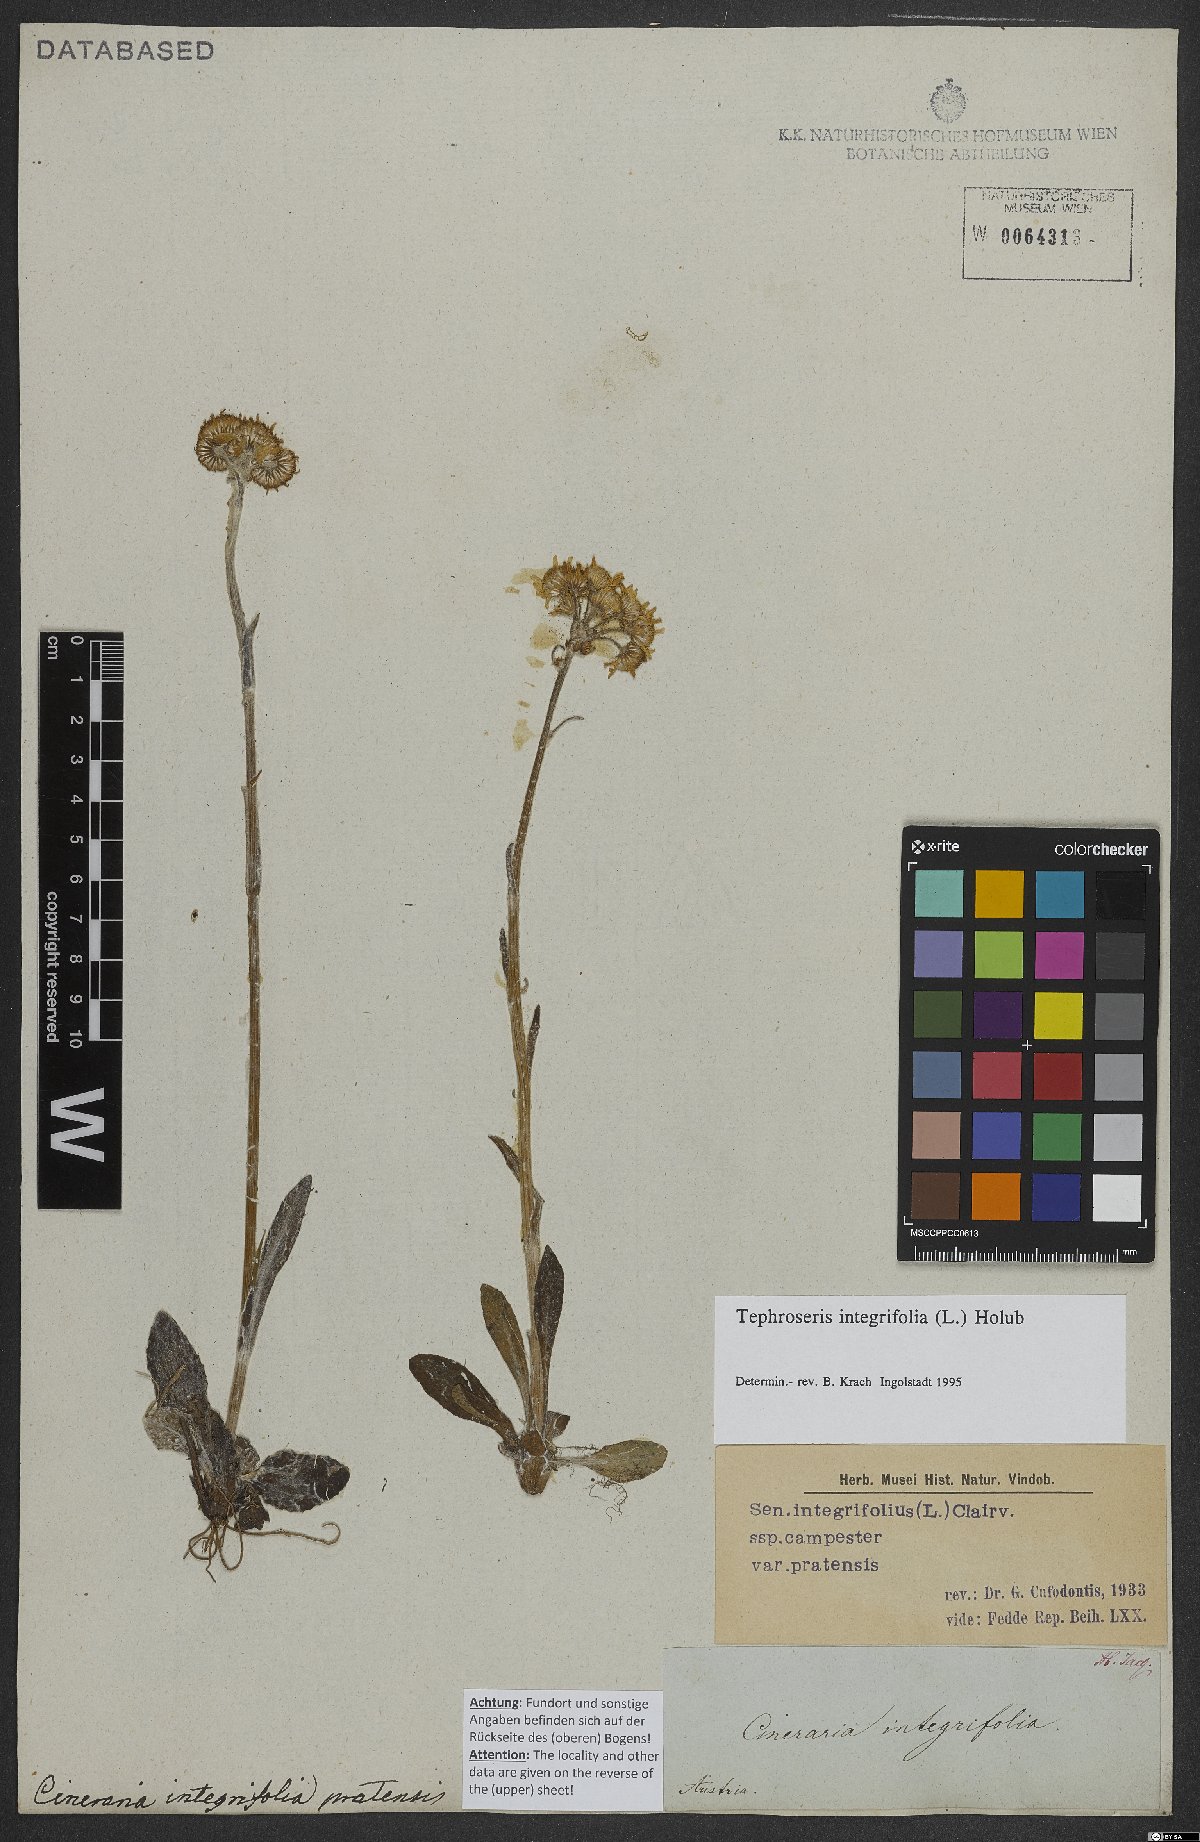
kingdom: Plantae
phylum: Tracheophyta
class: Magnoliopsida
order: Asterales
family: Asteraceae
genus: Tephroseris
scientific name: Tephroseris integrifolia
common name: Field fleawort
